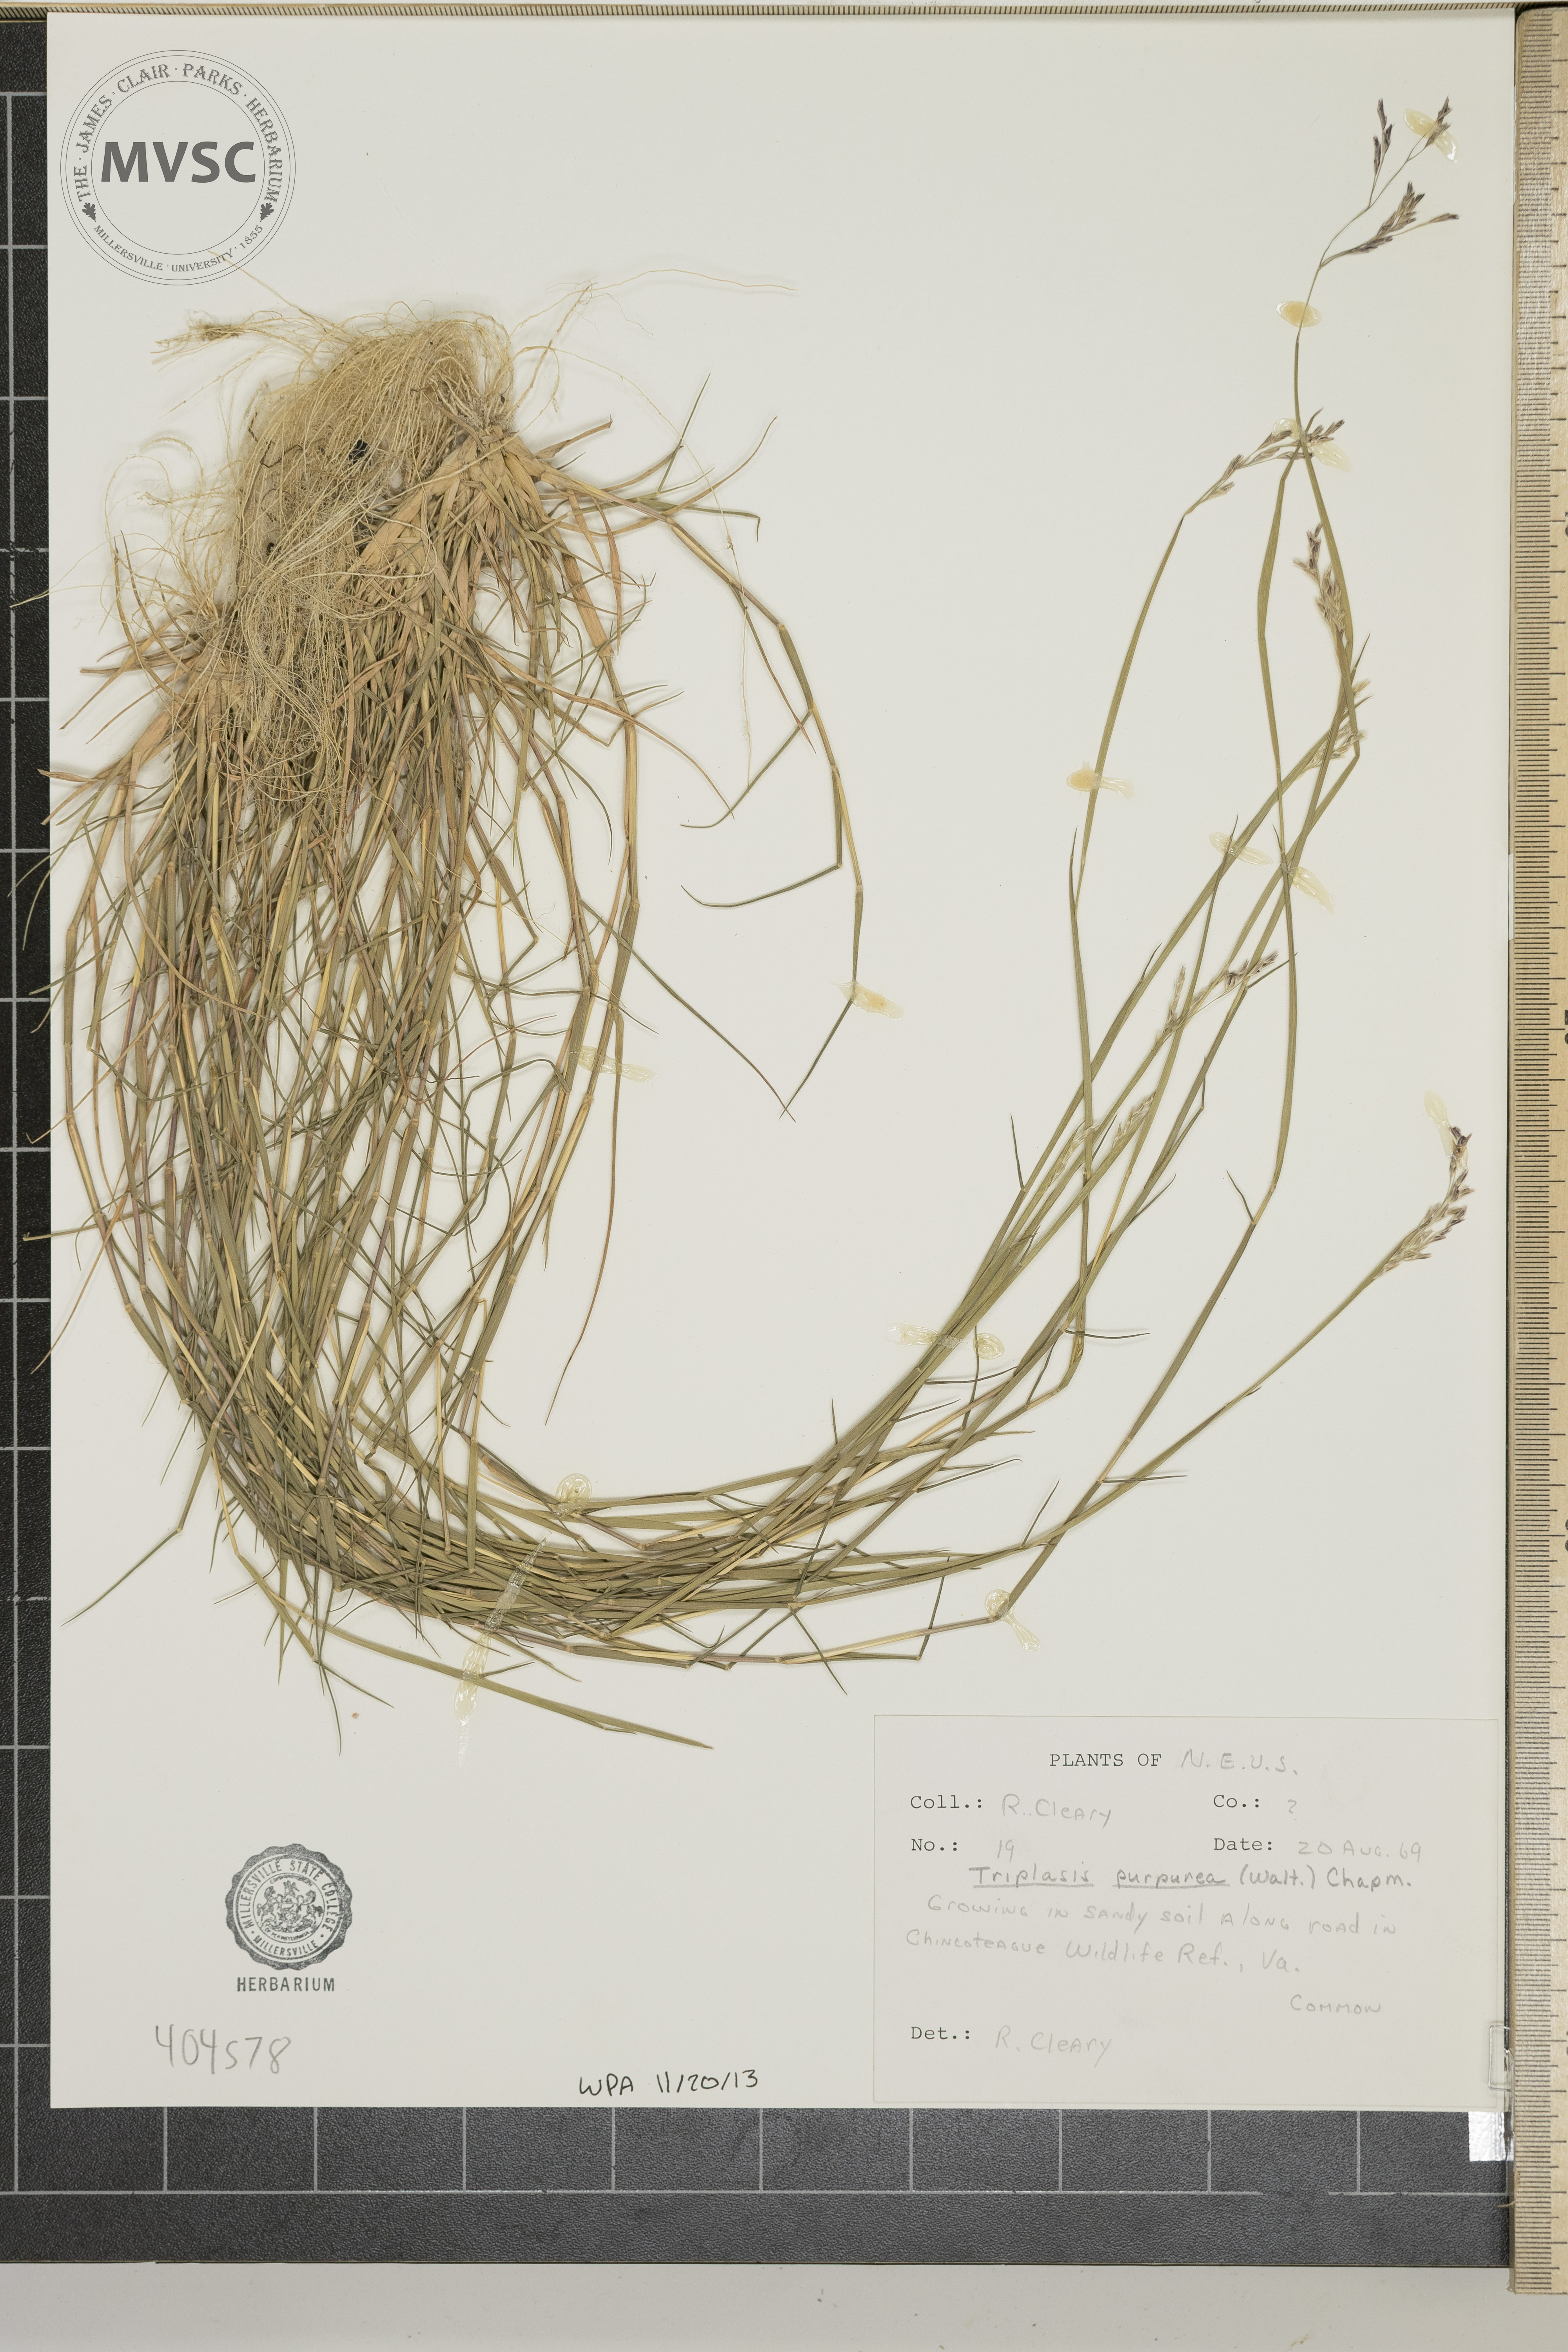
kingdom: Plantae
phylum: Tracheophyta
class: Liliopsida
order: Poales
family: Poaceae
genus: Triplasis
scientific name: Triplasis purpurea
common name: Purple sand grass
